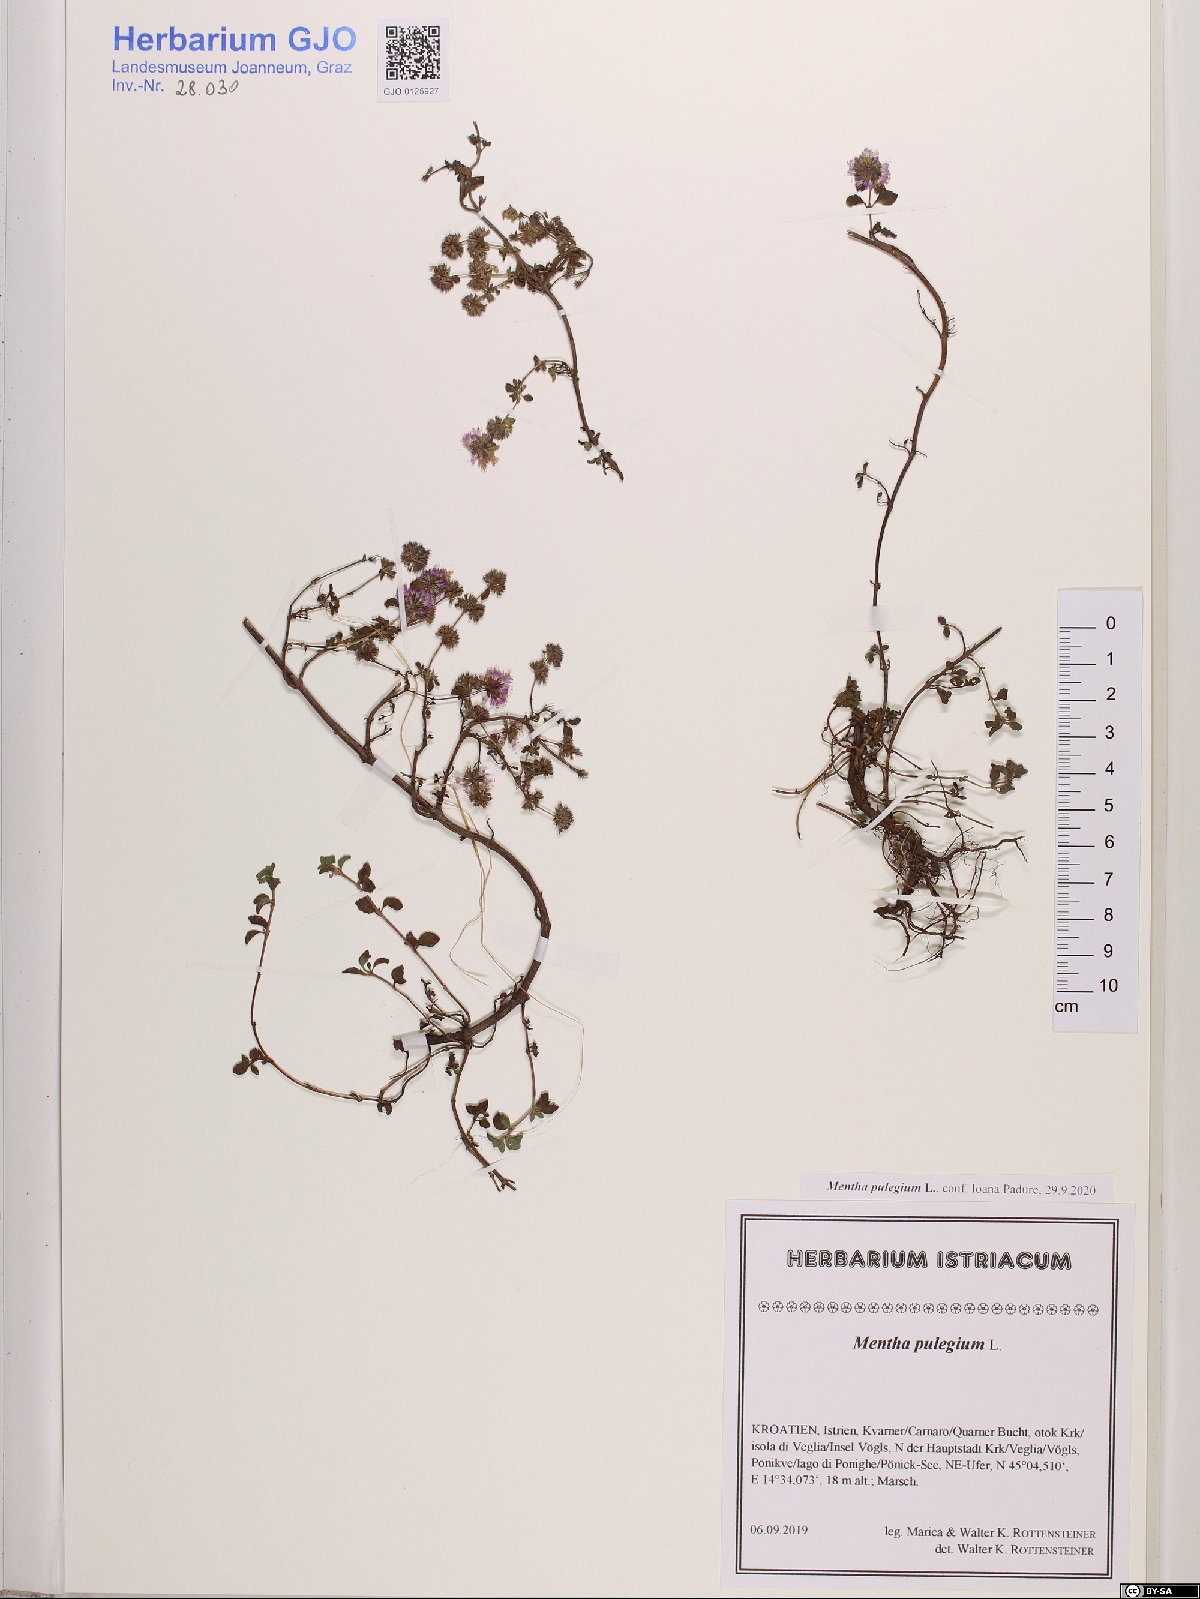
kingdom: Plantae
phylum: Tracheophyta
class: Magnoliopsida
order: Lamiales
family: Lamiaceae
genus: Mentha
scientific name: Mentha pulegium
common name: Pennyroyal
